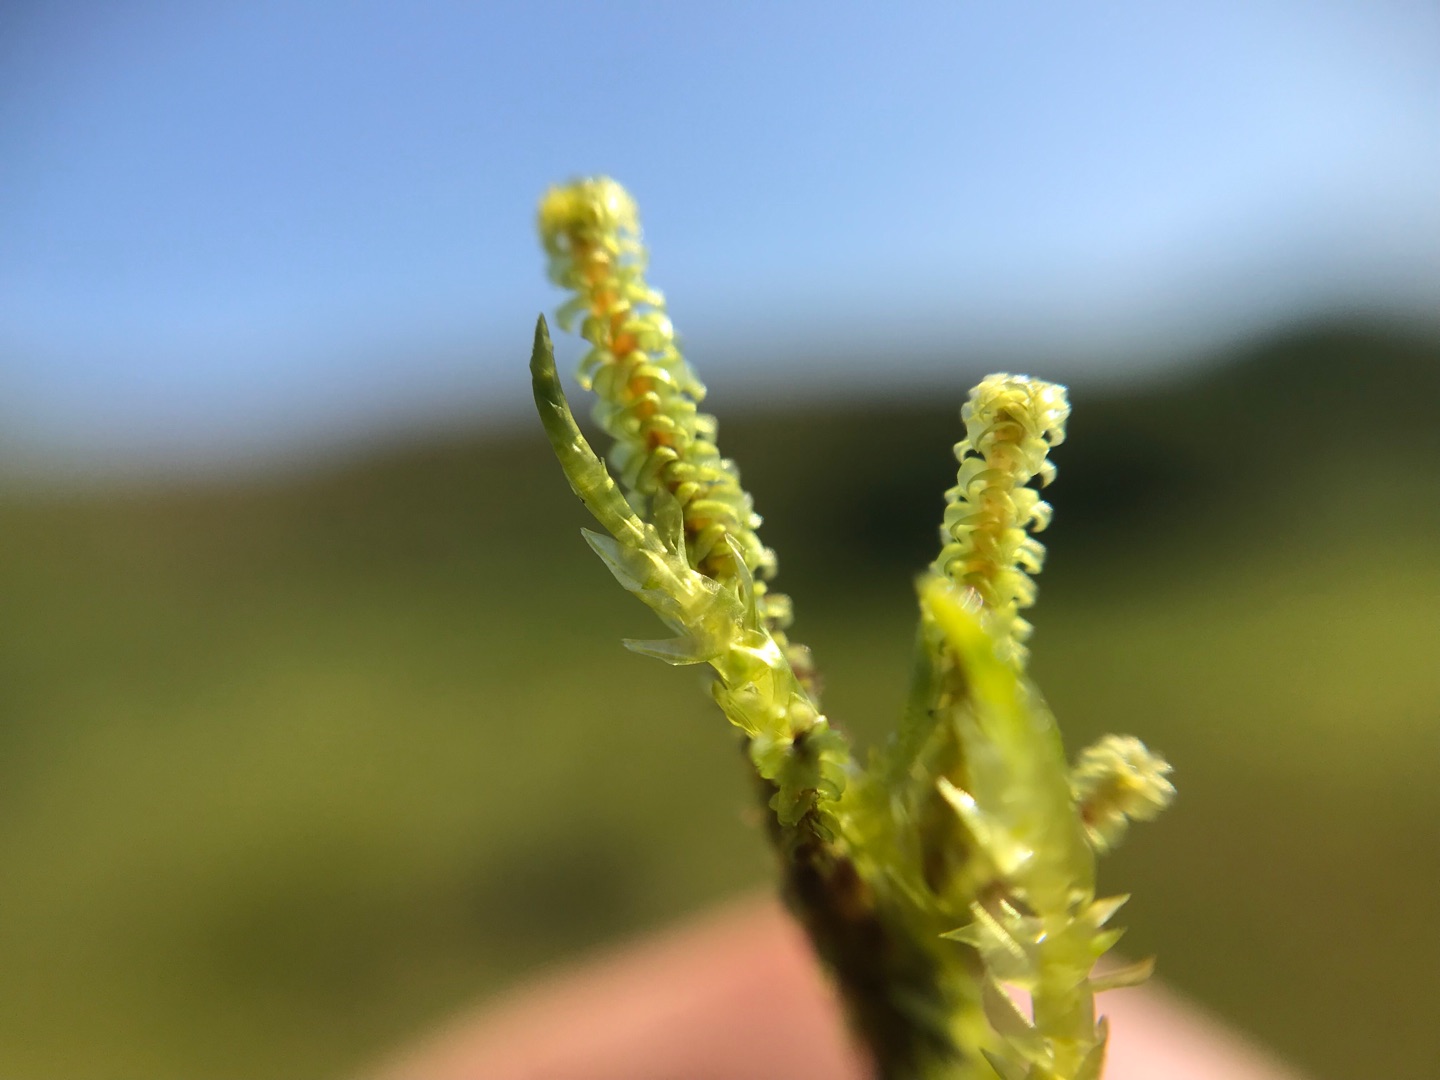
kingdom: Plantae
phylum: Bryophyta
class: Bryopsida
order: Splachnales
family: Meesiaceae
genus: Paludella
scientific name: Paludella squarrosa
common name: Almindelig piberensermos
